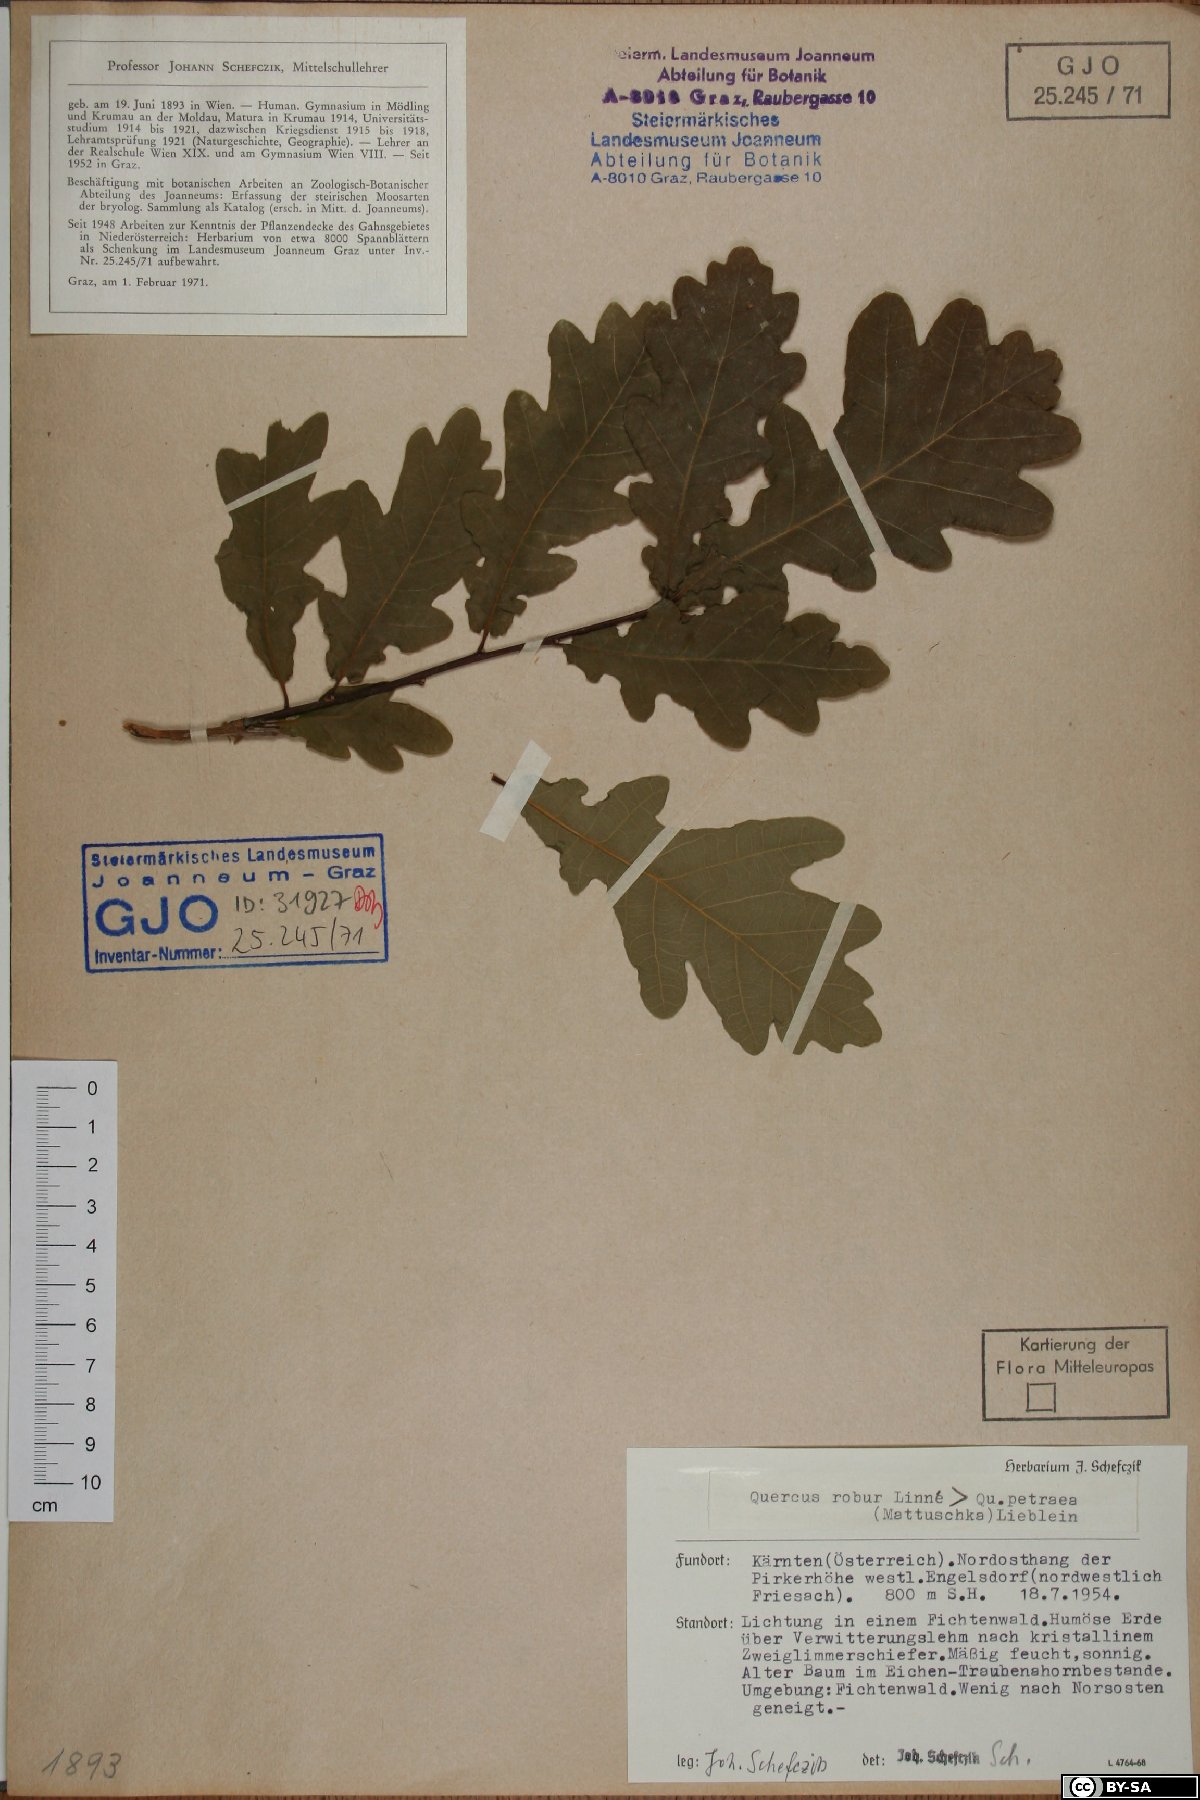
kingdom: Plantae
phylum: Tracheophyta
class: Magnoliopsida
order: Fagales
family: Fagaceae
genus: Quercus
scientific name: Quercus petraea
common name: Sessile oak
